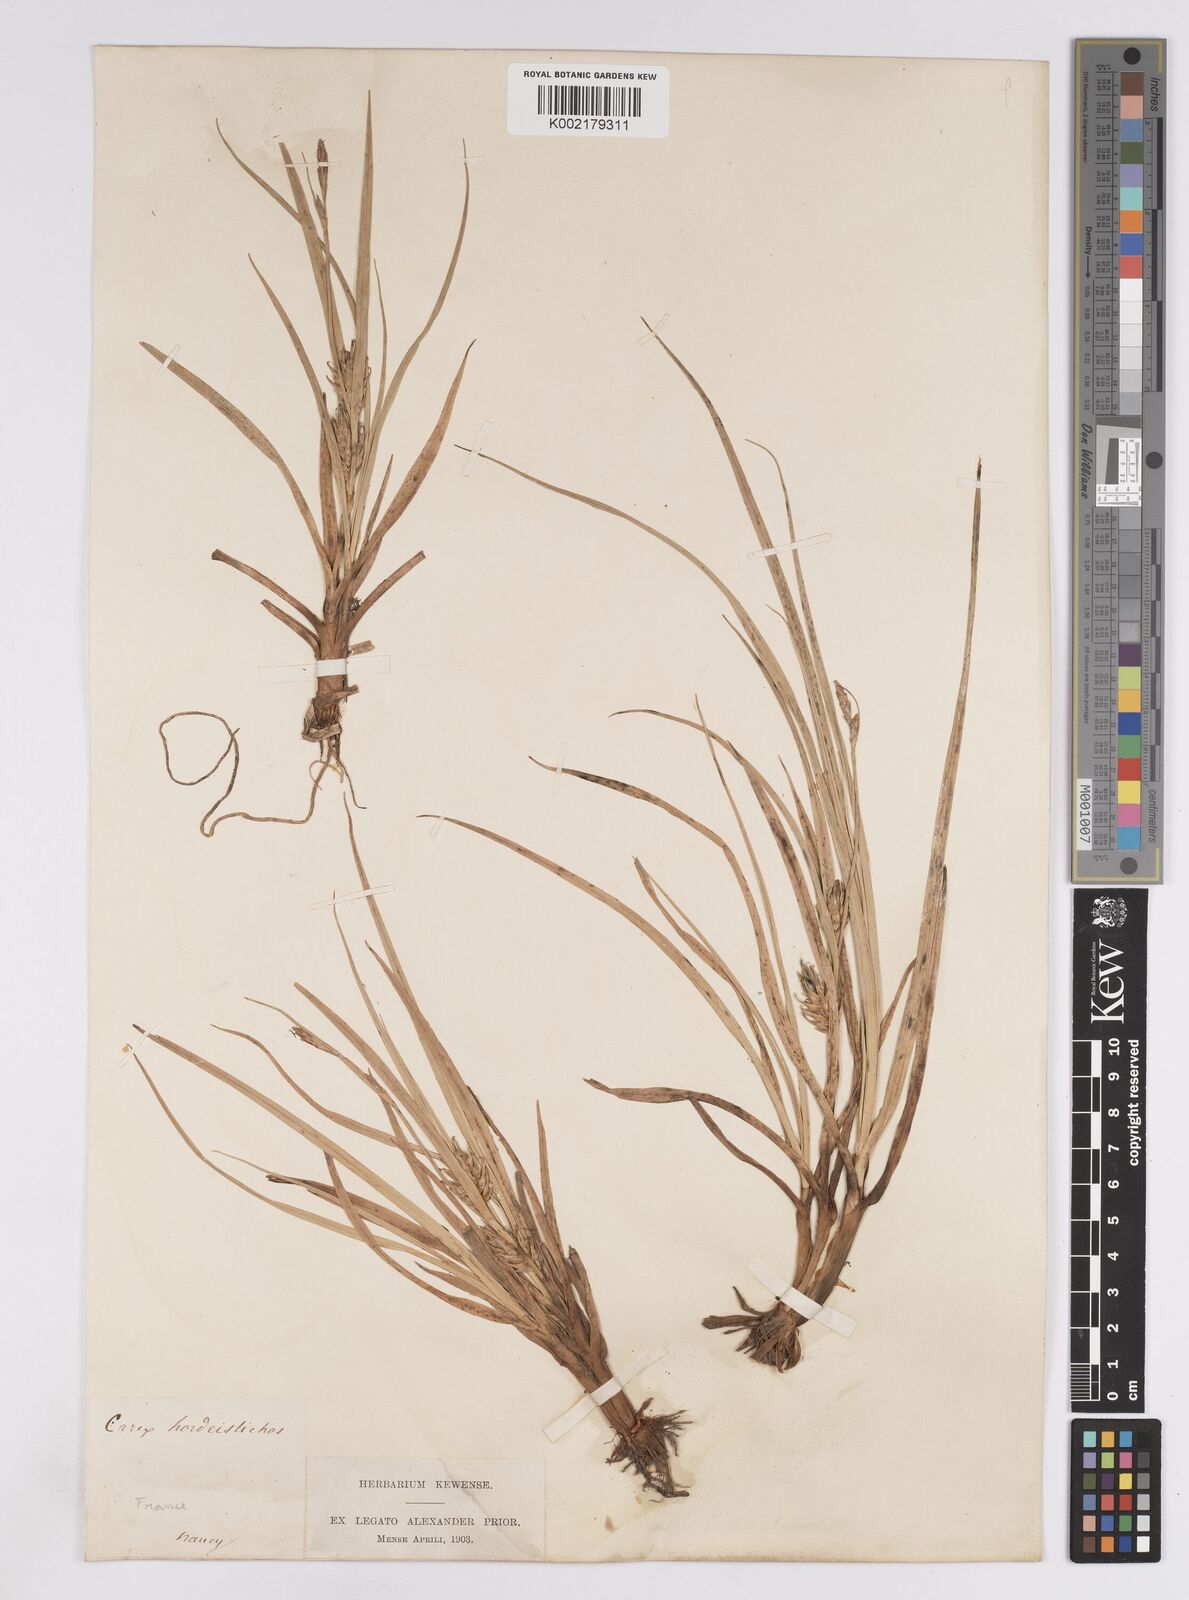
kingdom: Plantae
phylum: Tracheophyta
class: Liliopsida
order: Poales
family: Cyperaceae
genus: Carex
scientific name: Carex hordeistichos
